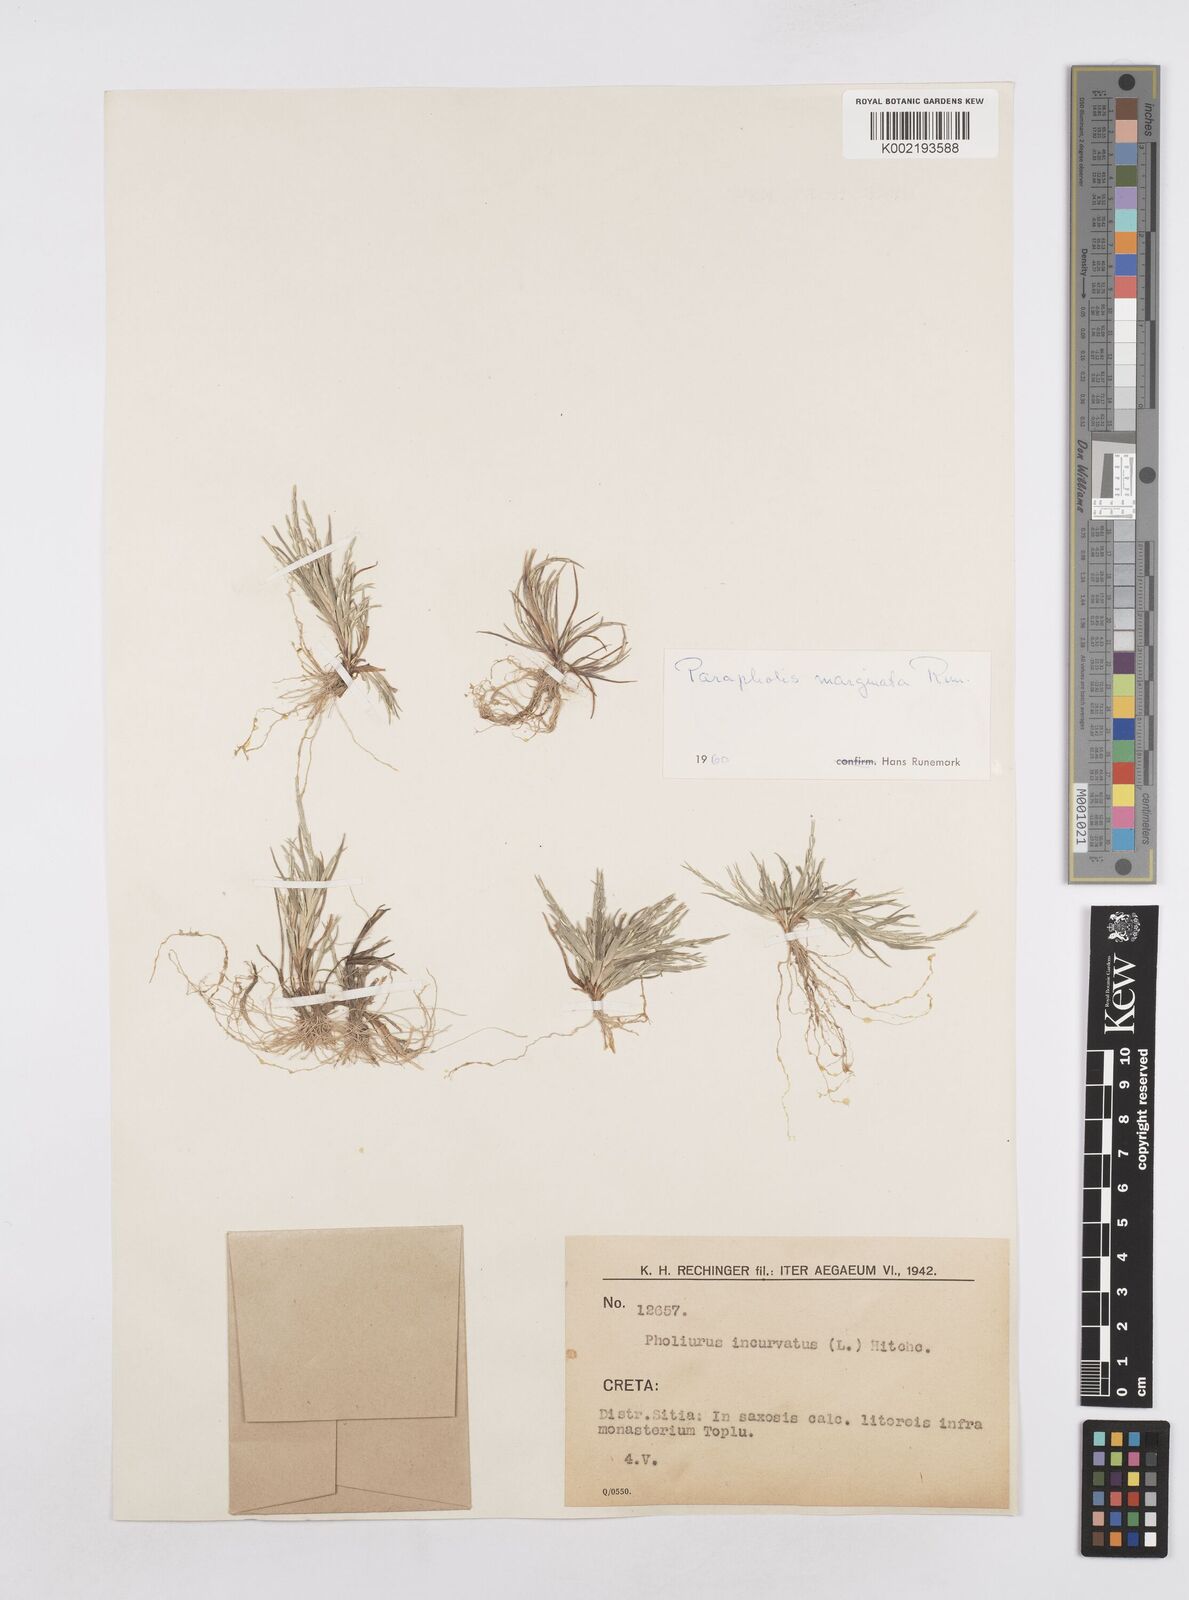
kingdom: Plantae
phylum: Tracheophyta
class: Liliopsida
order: Poales
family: Poaceae
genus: Parapholis
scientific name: Parapholis marginata
